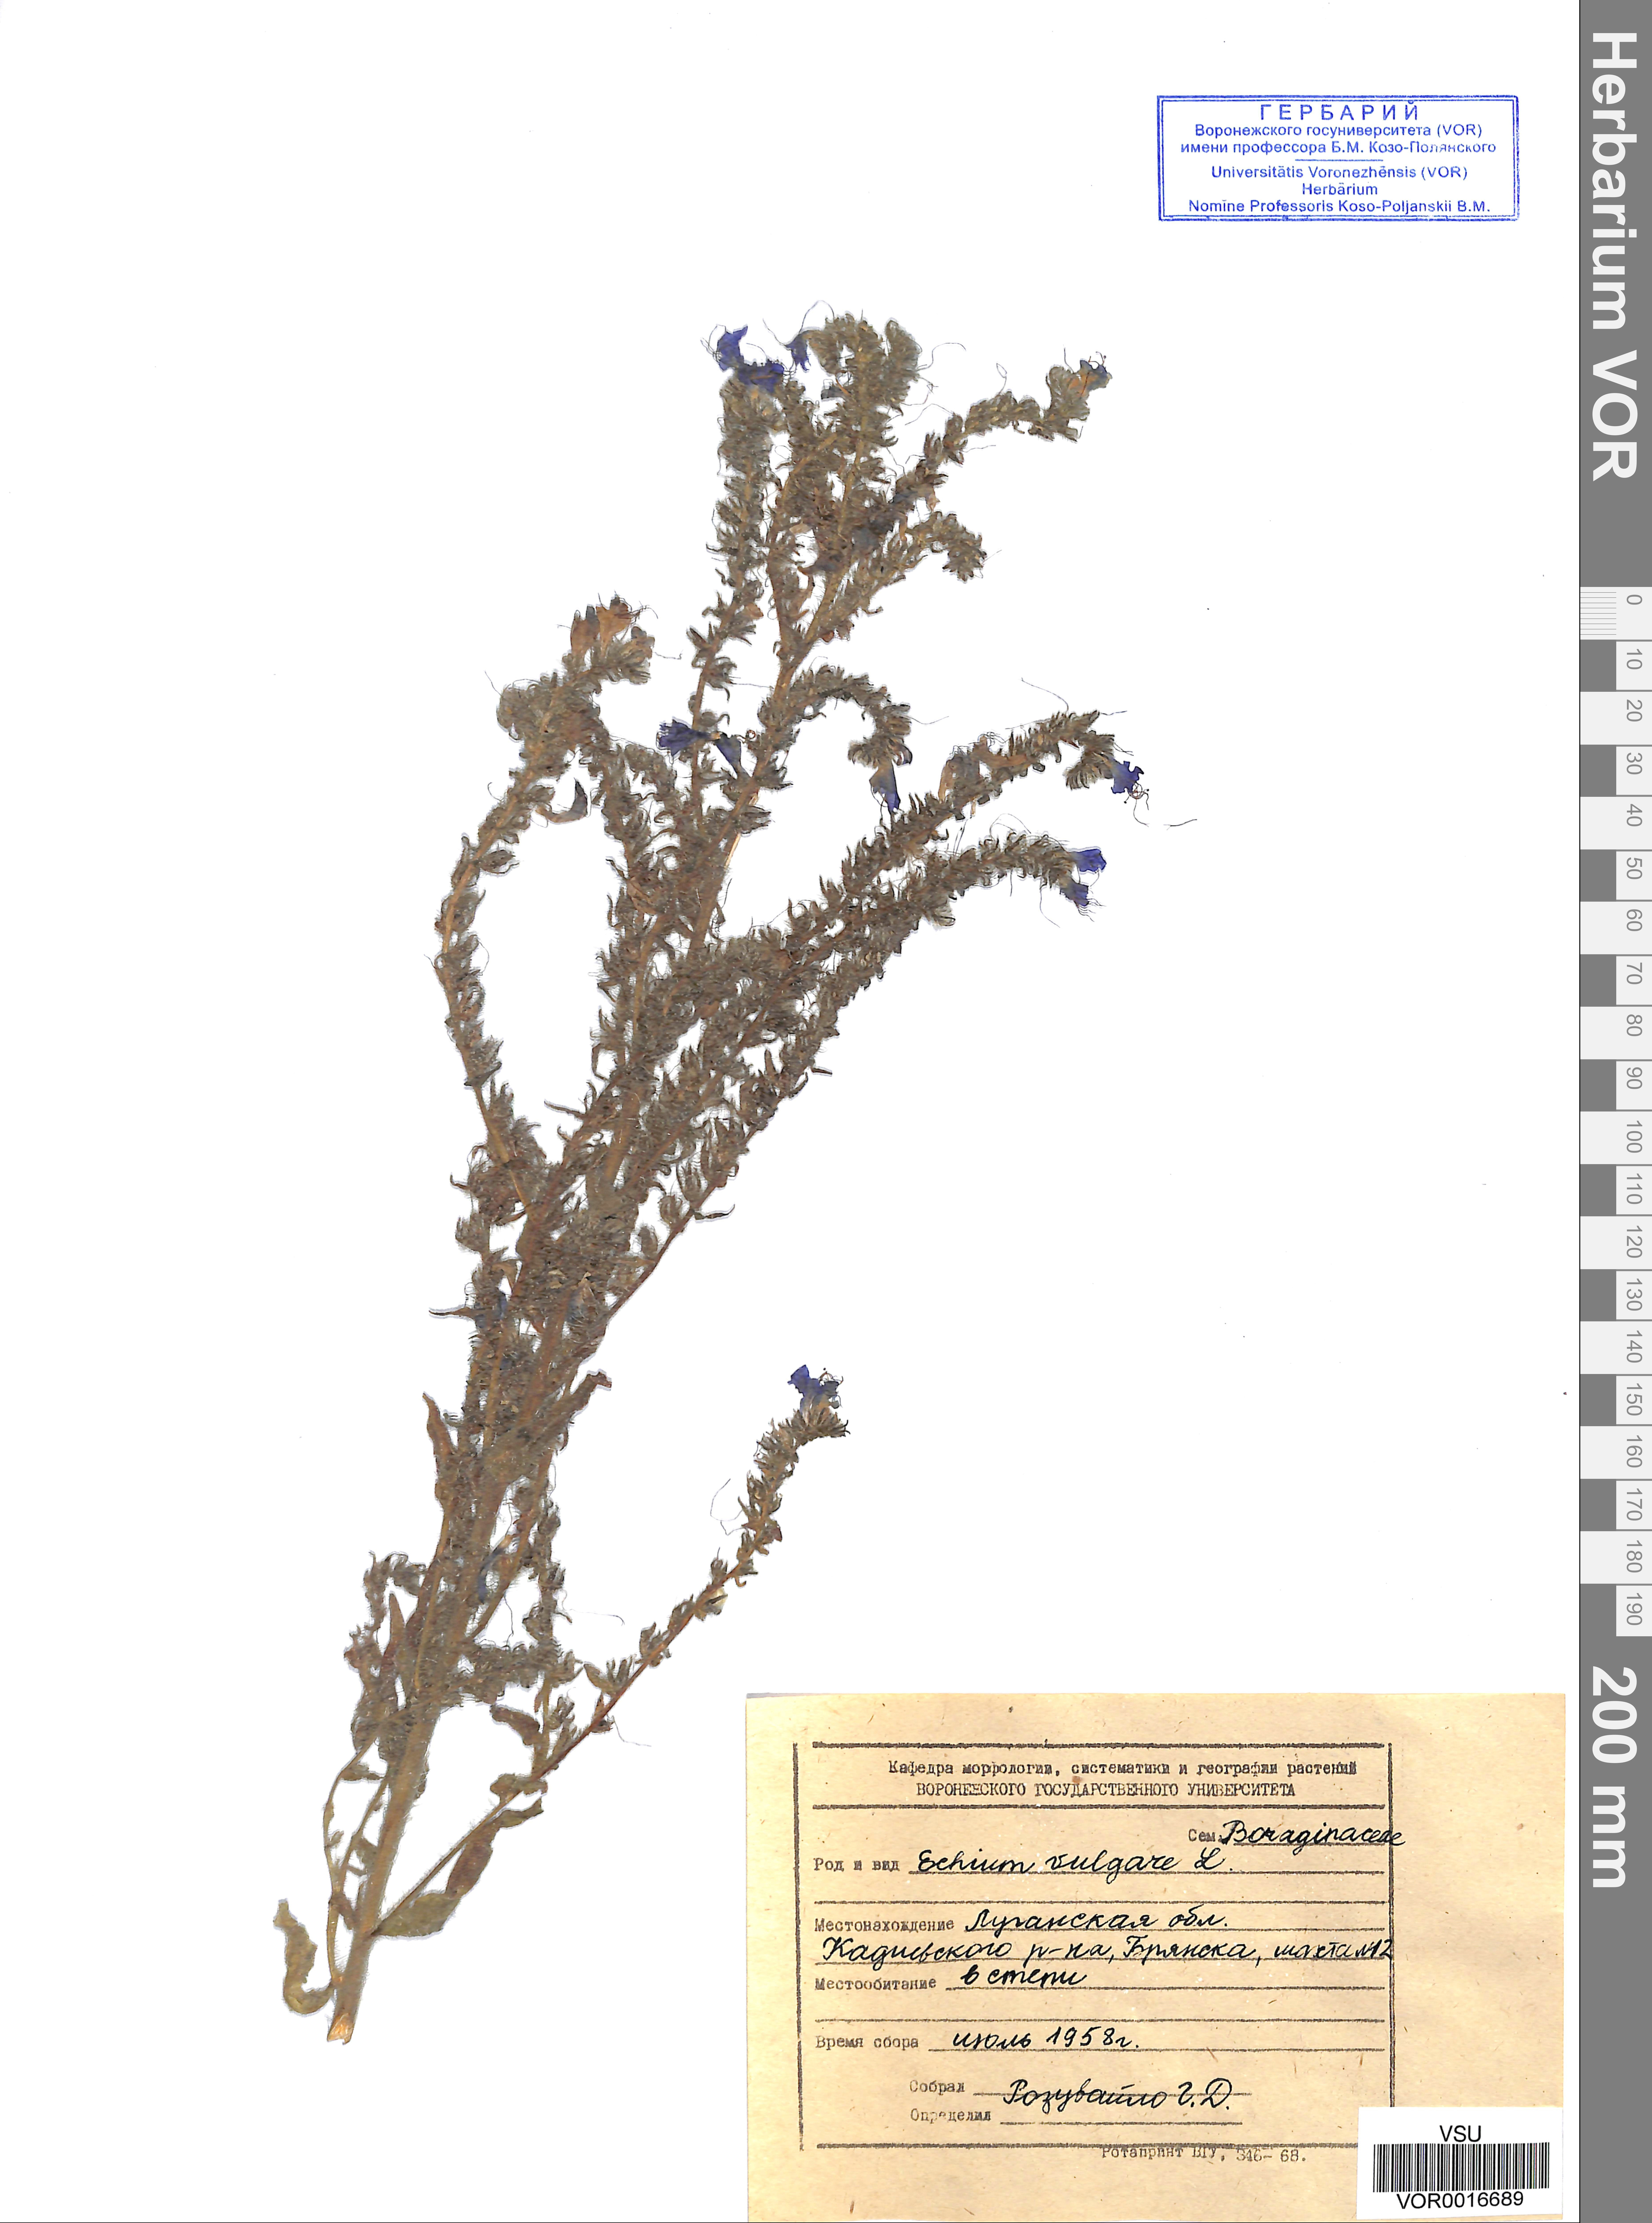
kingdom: Plantae
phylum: Tracheophyta
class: Magnoliopsida
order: Boraginales
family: Boraginaceae
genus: Echium
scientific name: Echium vulgare
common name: Common viper's bugloss
